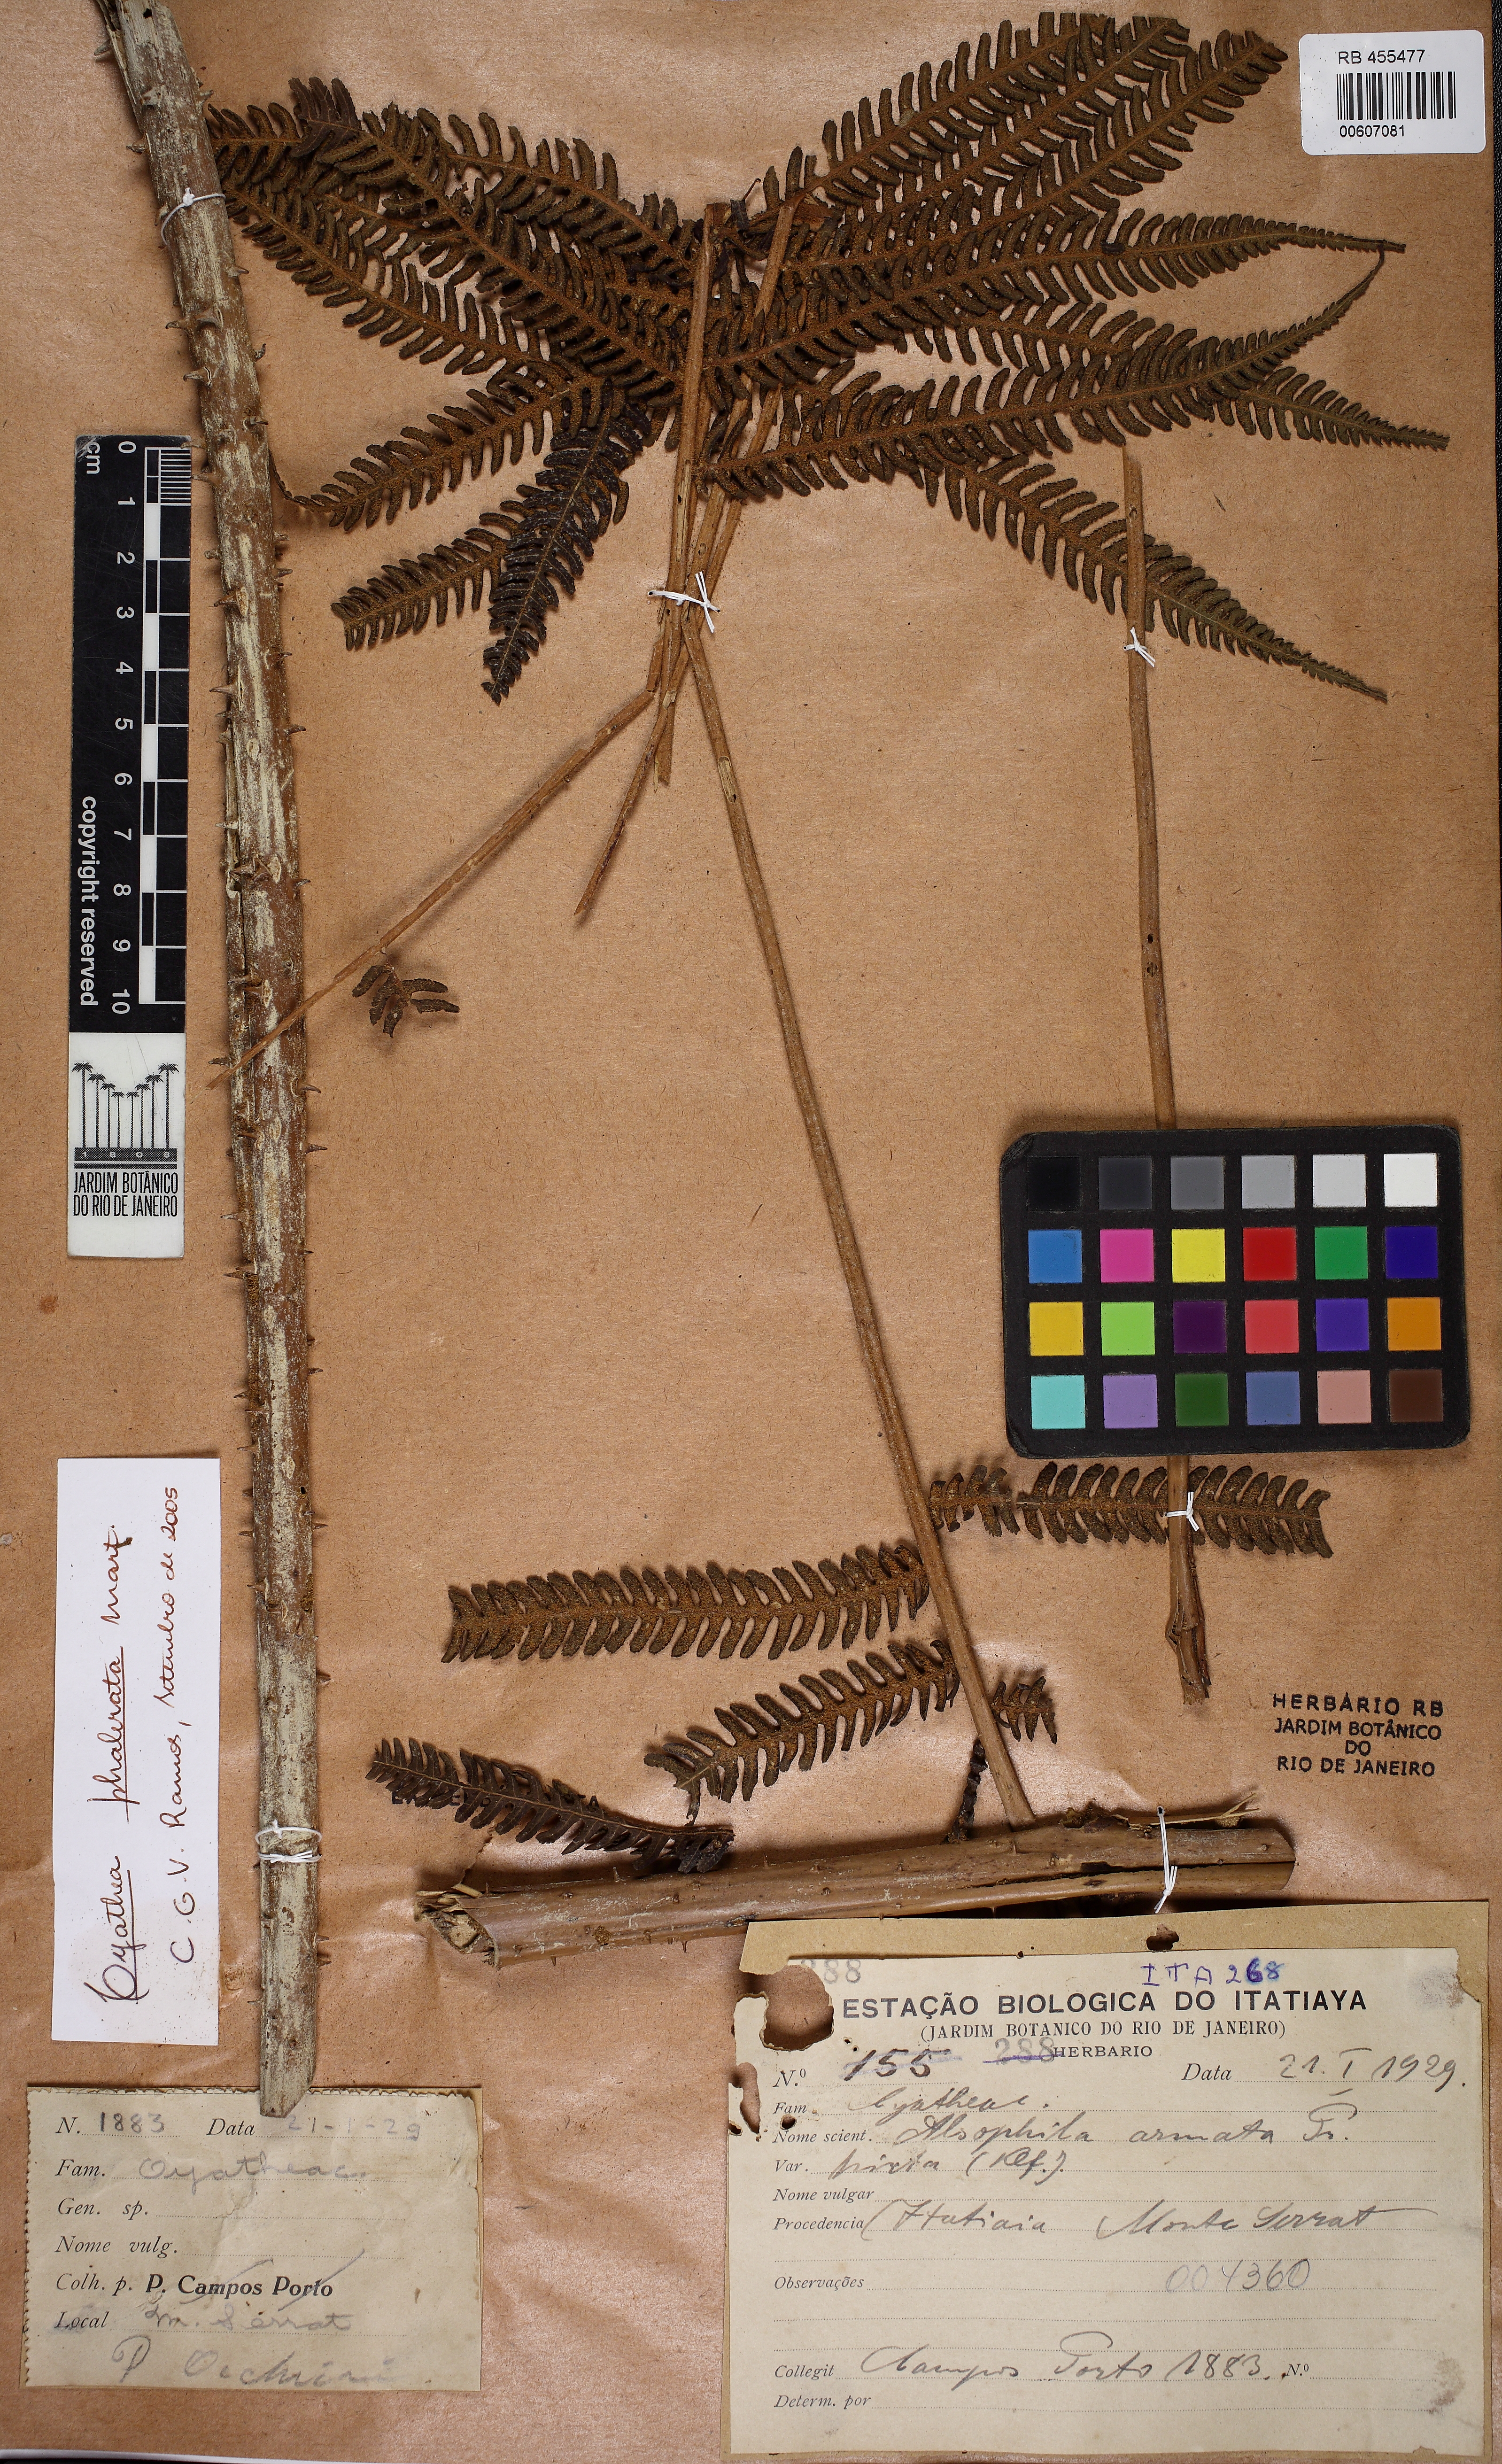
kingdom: Plantae
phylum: Tracheophyta
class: Polypodiopsida
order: Cyatheales
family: Cyatheaceae
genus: Cyathea
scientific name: Cyathea phalerata
